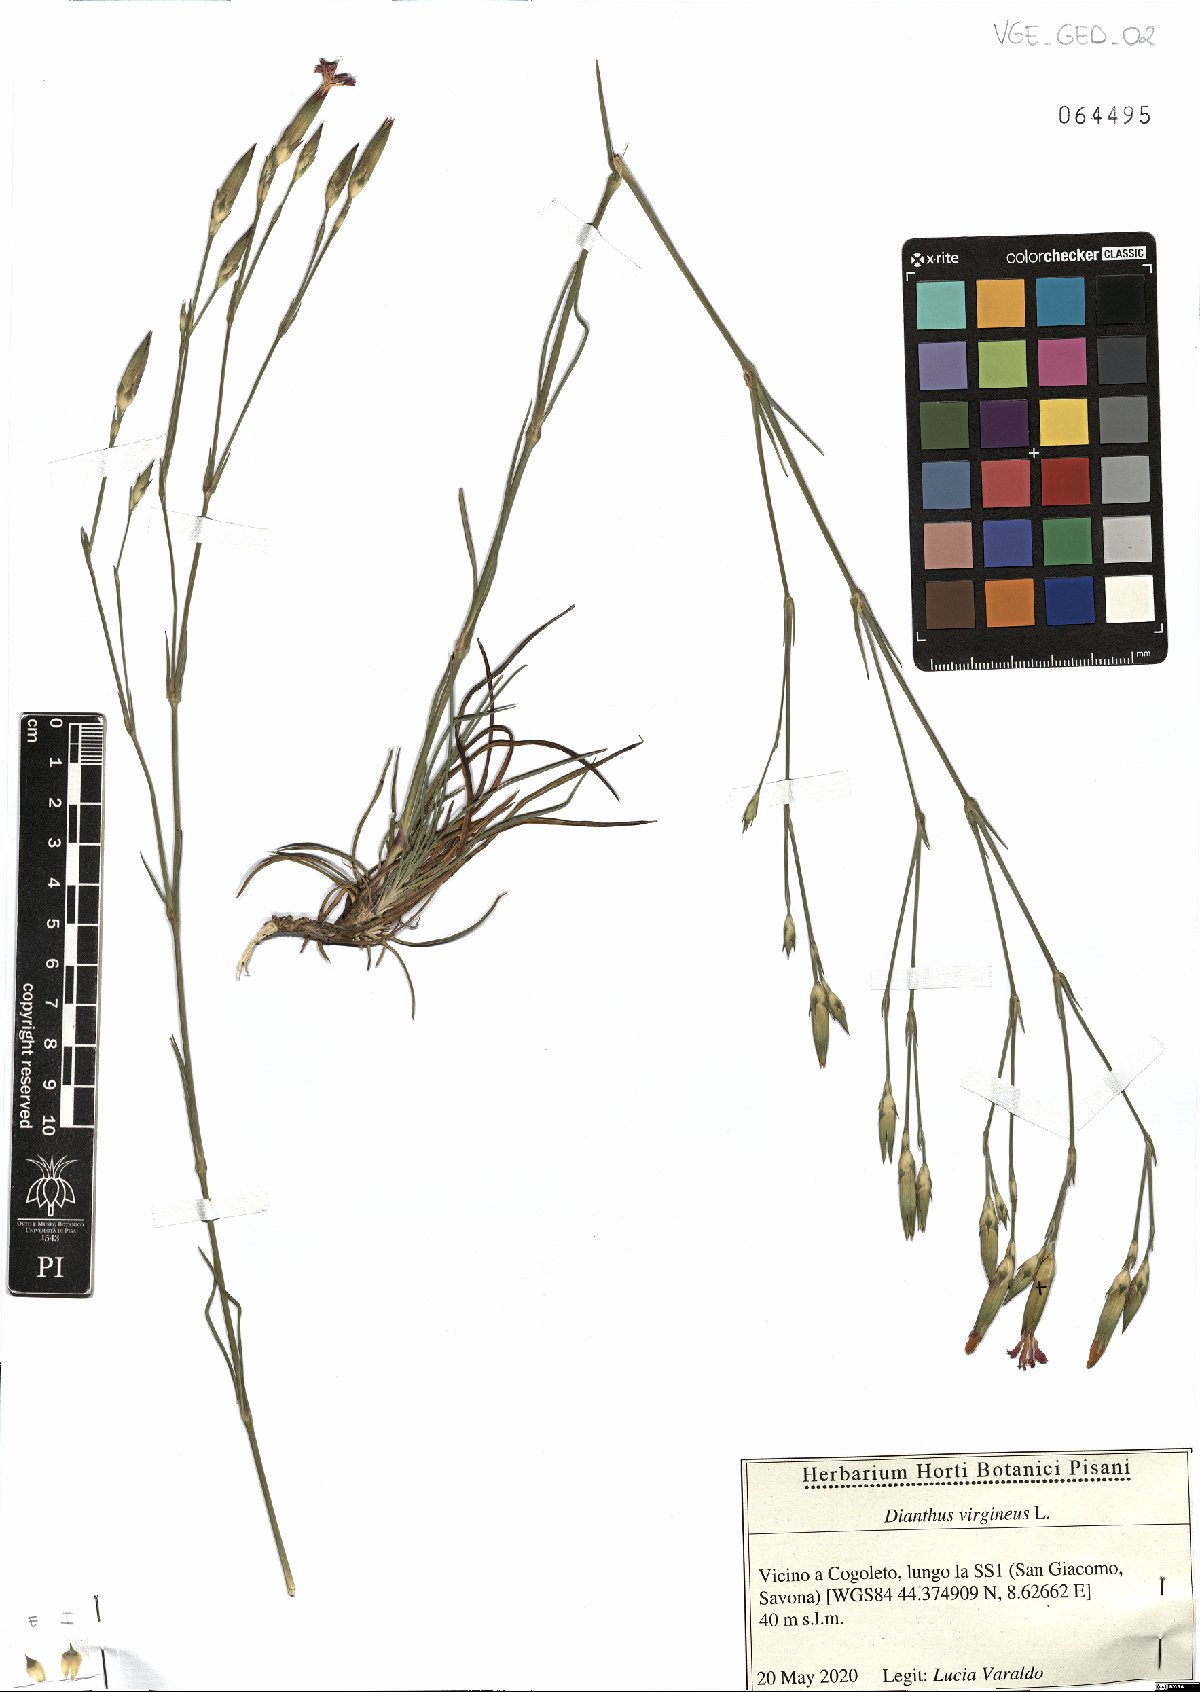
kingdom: Plantae
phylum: Tracheophyta
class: Magnoliopsida
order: Caryophyllales
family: Caryophyllaceae
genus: Dianthus
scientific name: Dianthus virgineus
